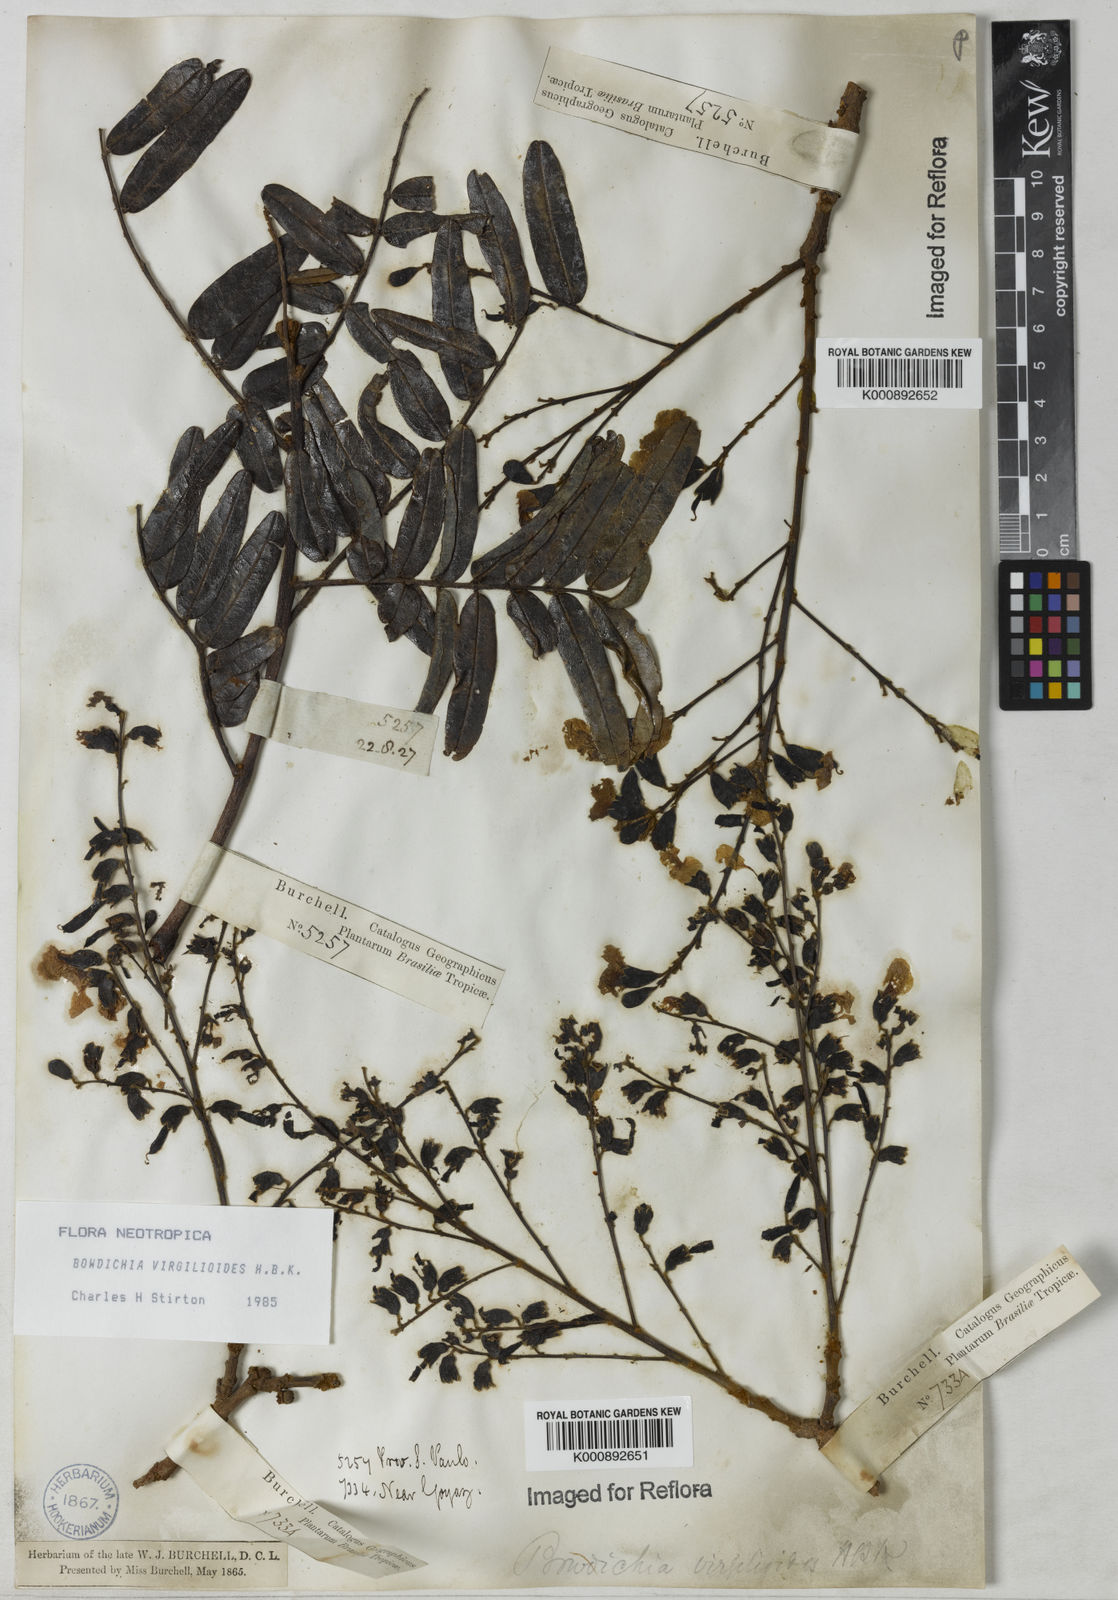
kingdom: Plantae
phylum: Tracheophyta
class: Magnoliopsida
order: Fabales
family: Fabaceae
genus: Bowdichia
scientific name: Bowdichia virgilioides
